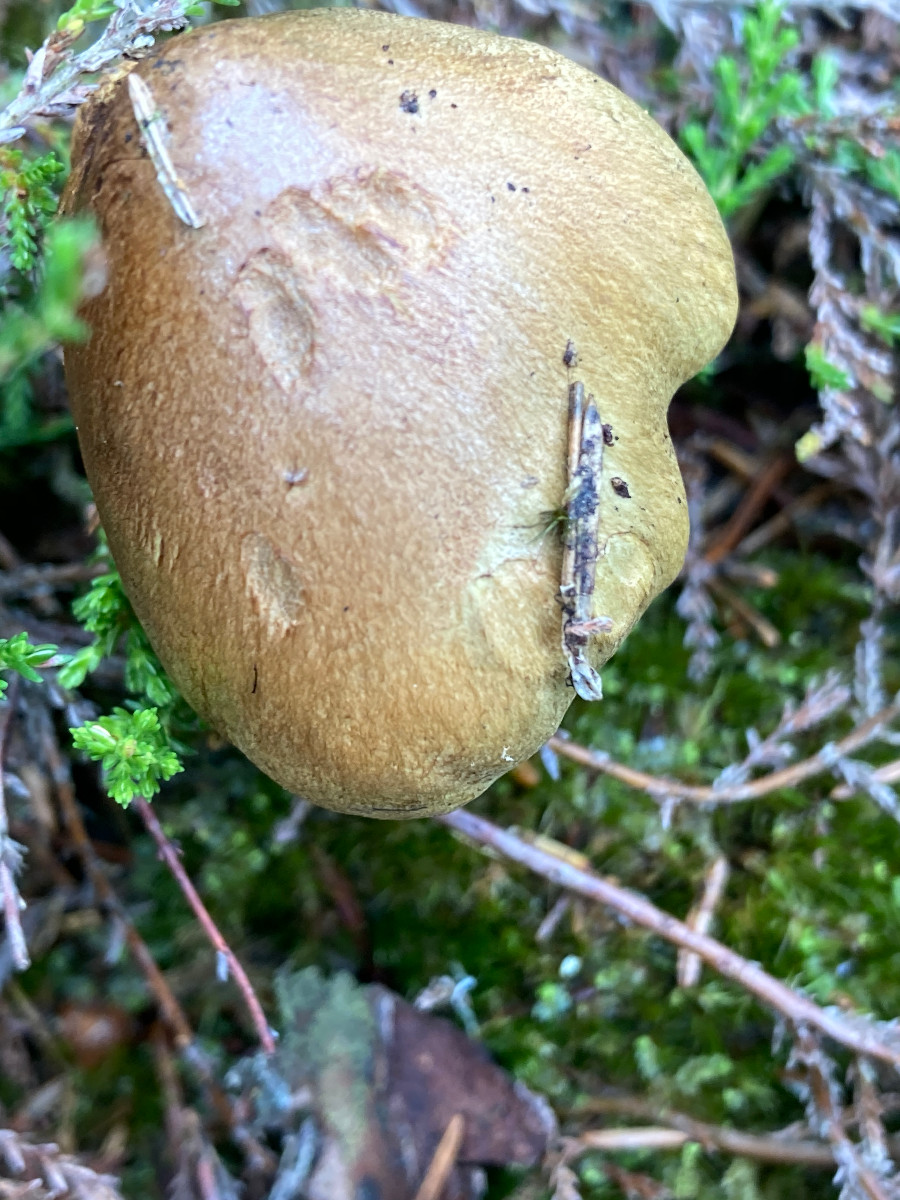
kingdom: Fungi
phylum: Basidiomycota
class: Agaricomycetes
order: Agaricales
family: Tricholomataceae
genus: Tricholoma
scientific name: Tricholoma aestuans
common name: kegle-ridderhat
